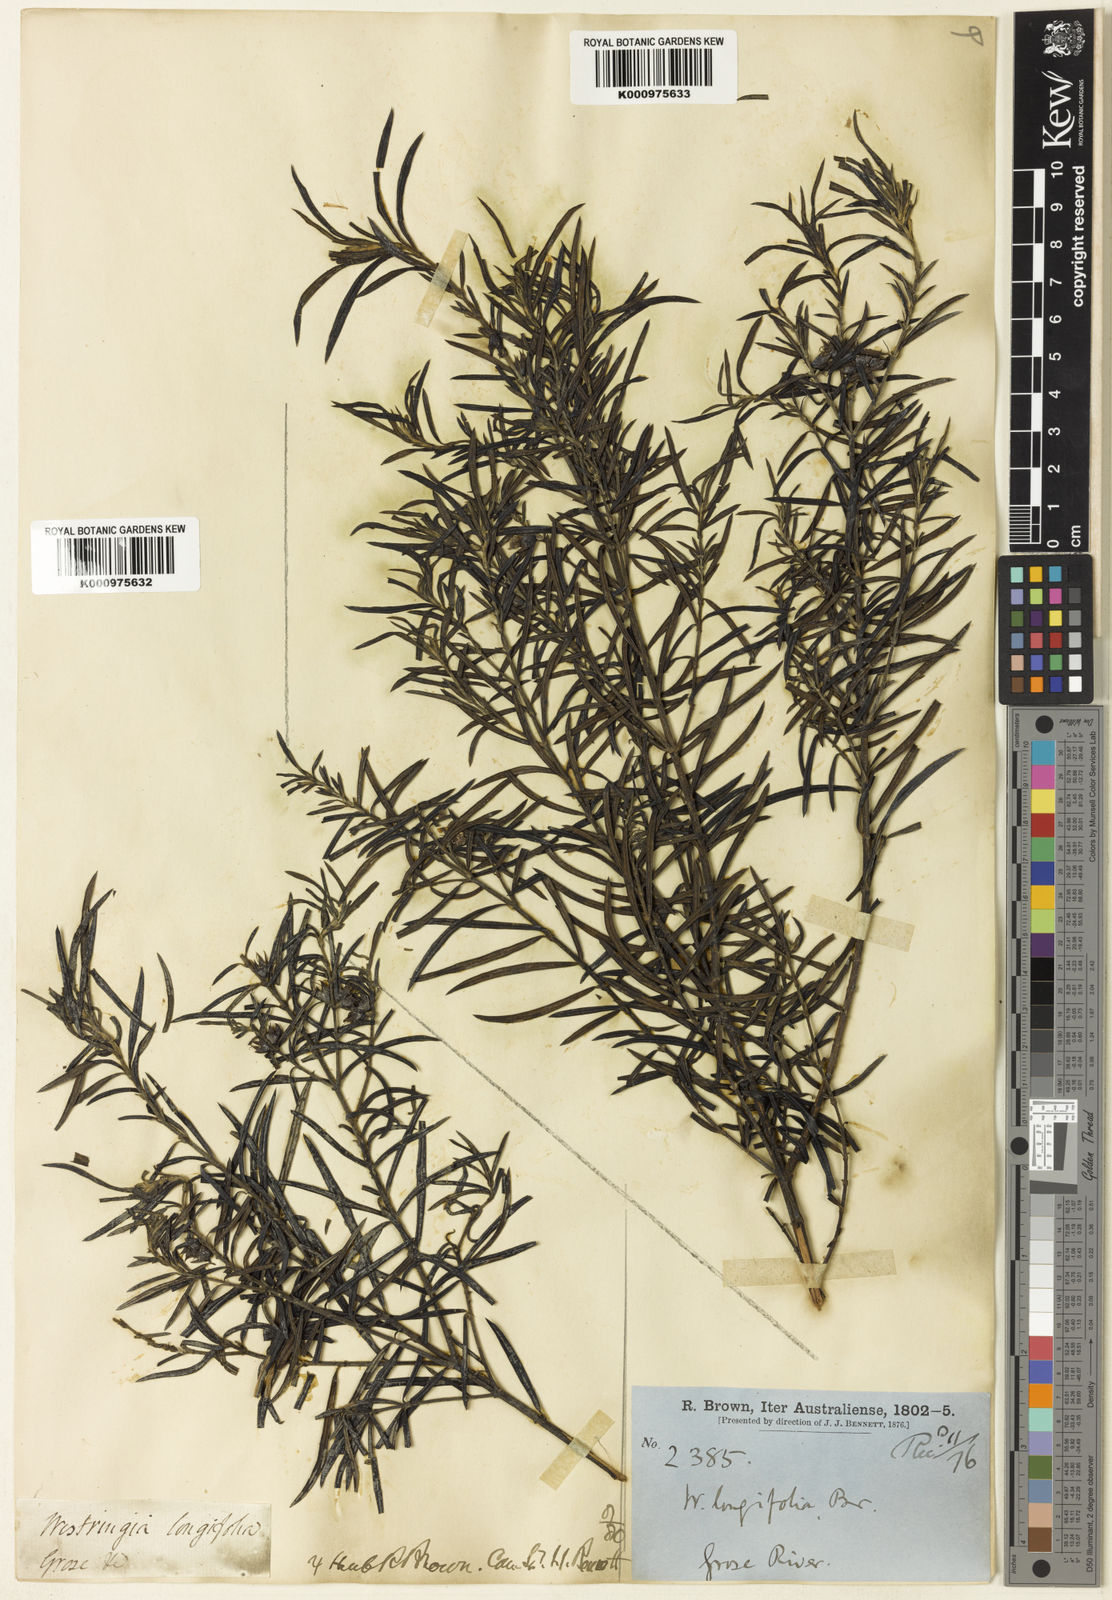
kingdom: Plantae
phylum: Tracheophyta
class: Magnoliopsida
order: Lamiales
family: Lamiaceae
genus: Westringia
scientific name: Westringia longifolia
